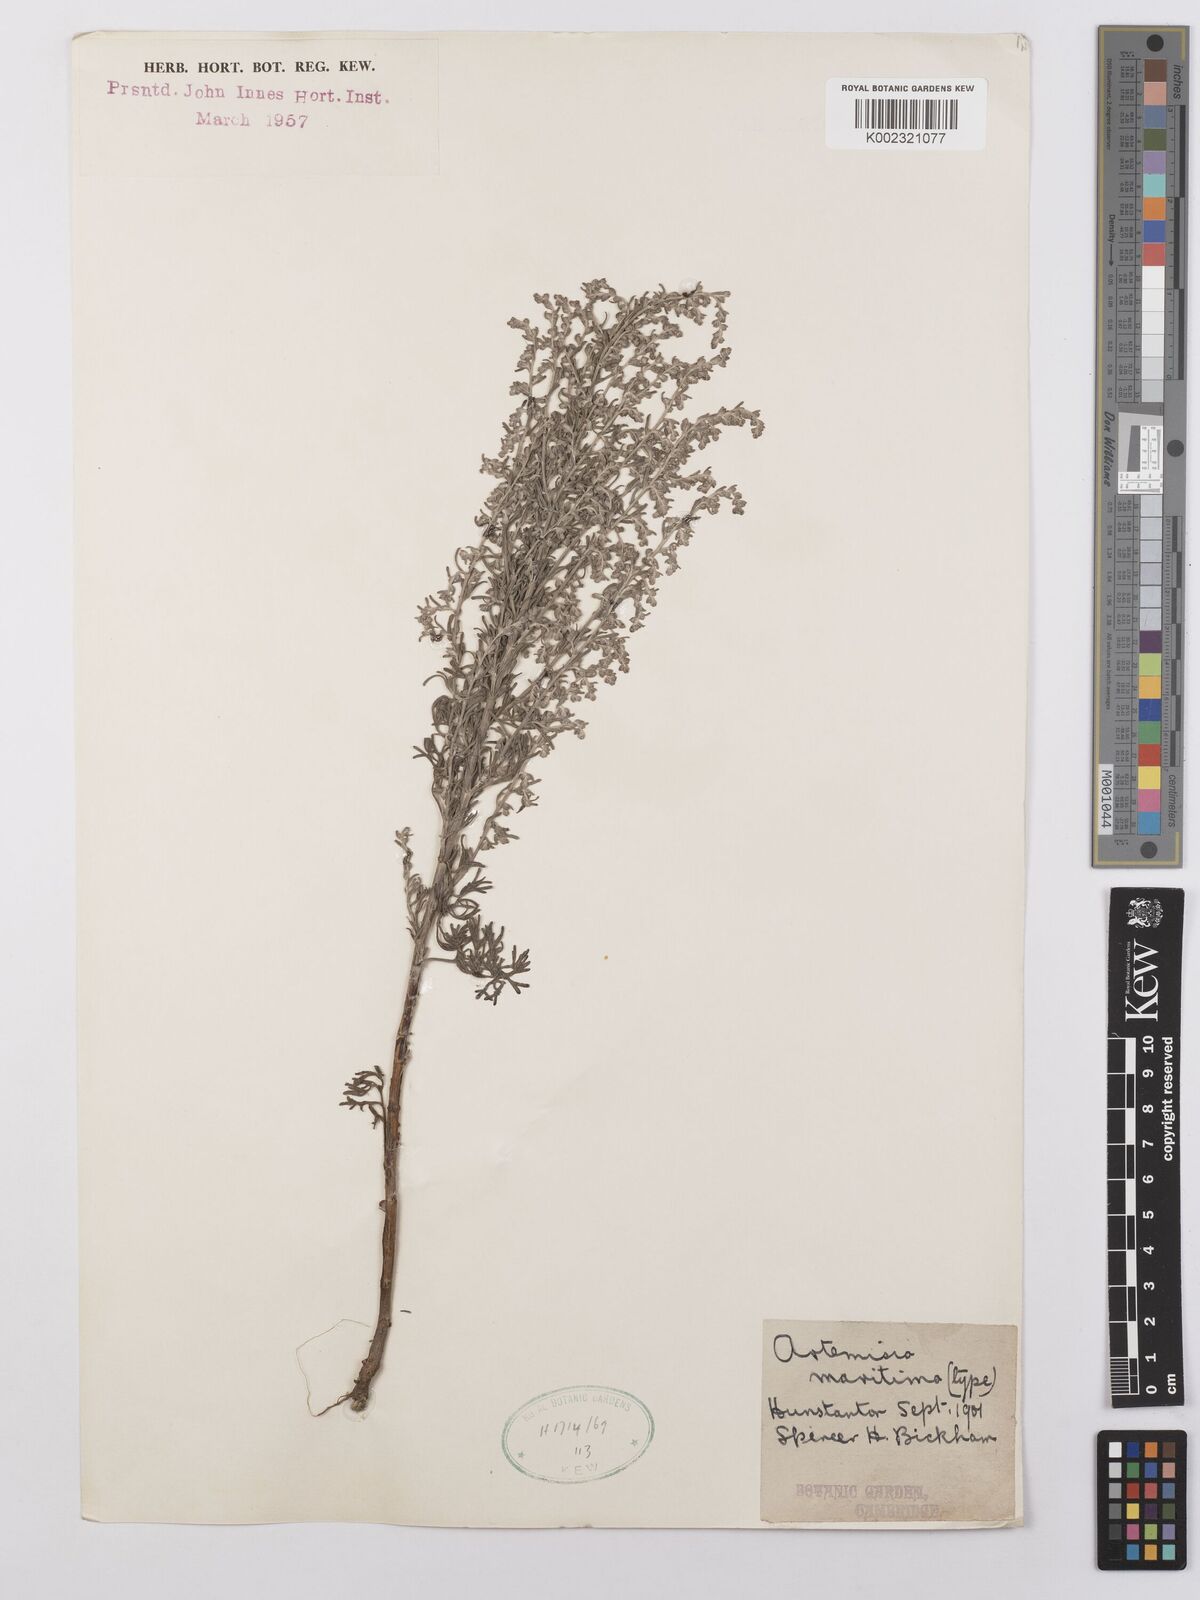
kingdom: Plantae
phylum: Tracheophyta
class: Magnoliopsida
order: Asterales
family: Asteraceae
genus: Artemisia
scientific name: Artemisia maritima
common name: Wormseed
